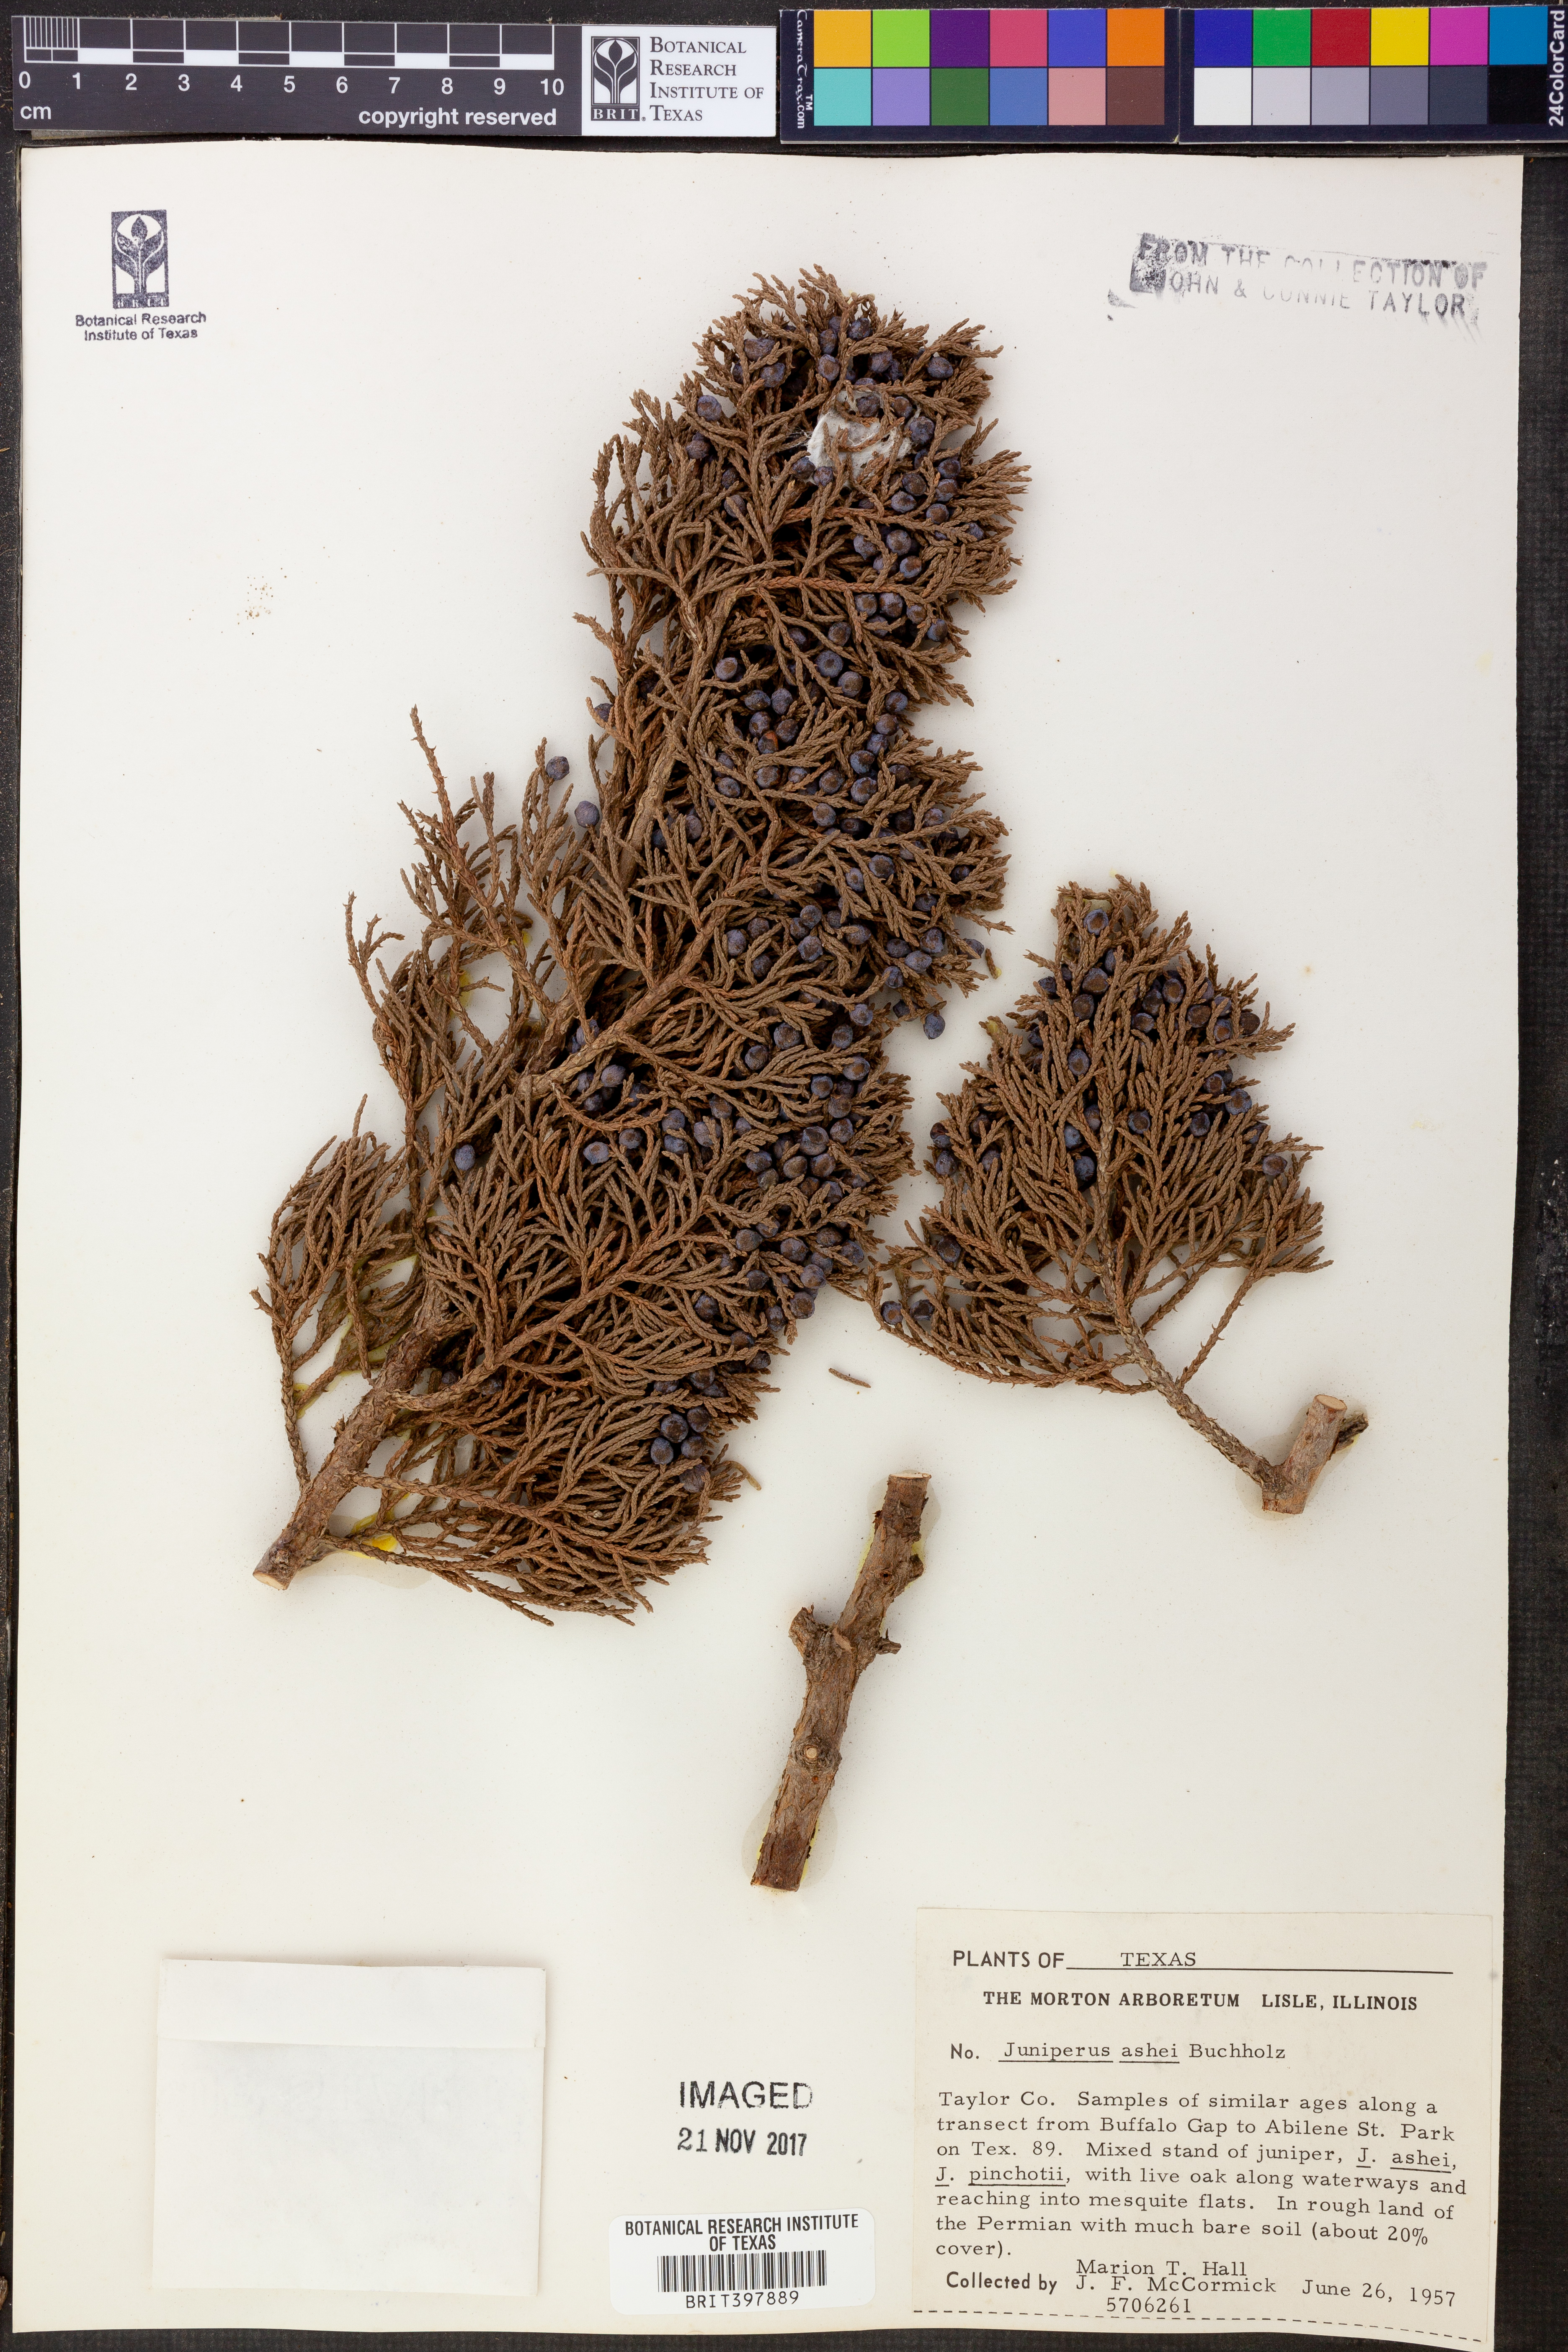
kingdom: Plantae
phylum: Tracheophyta
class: Pinopsida
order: Pinales
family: Cupressaceae
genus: Juniperus
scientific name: Juniperus ashei
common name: Mexican juniper
